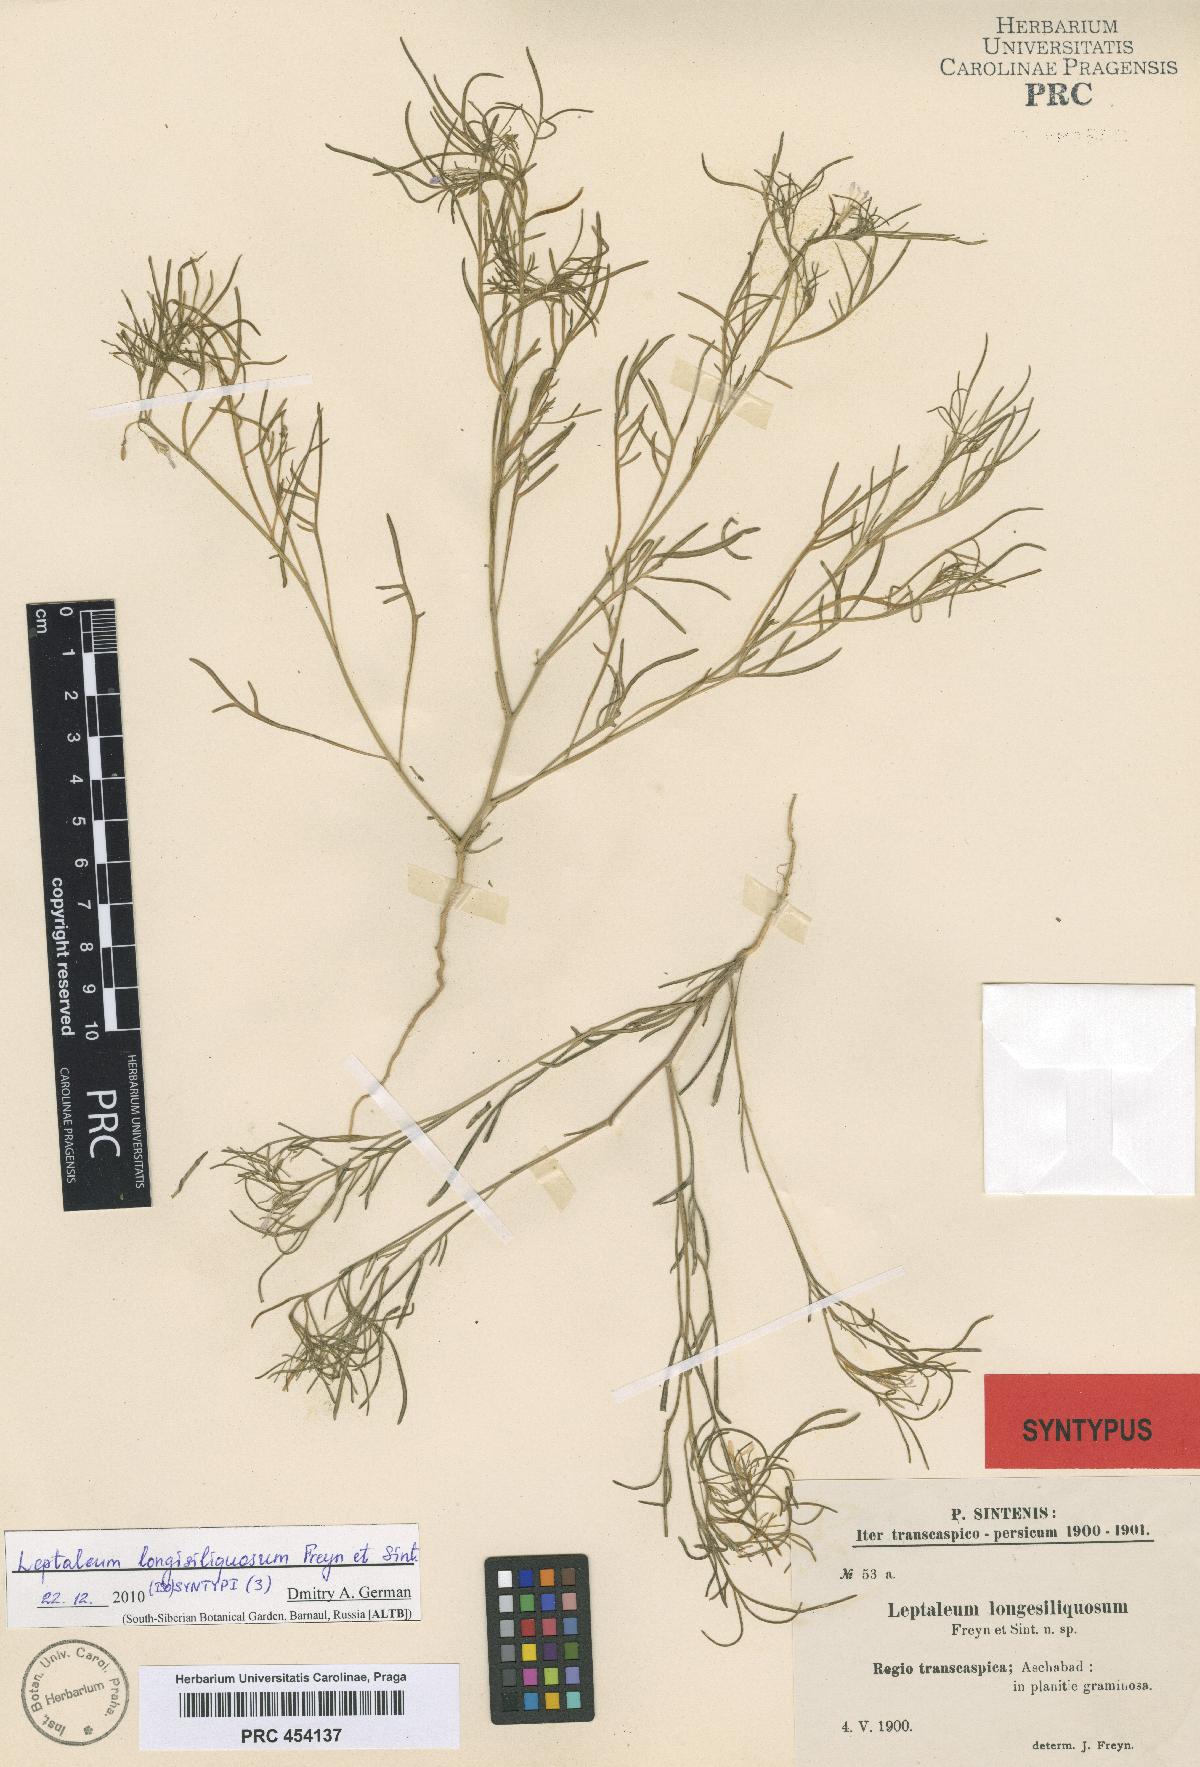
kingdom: Plantae
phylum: Tracheophyta
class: Magnoliopsida
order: Brassicales
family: Brassicaceae
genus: Leptaleum
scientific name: Leptaleum filifolium
